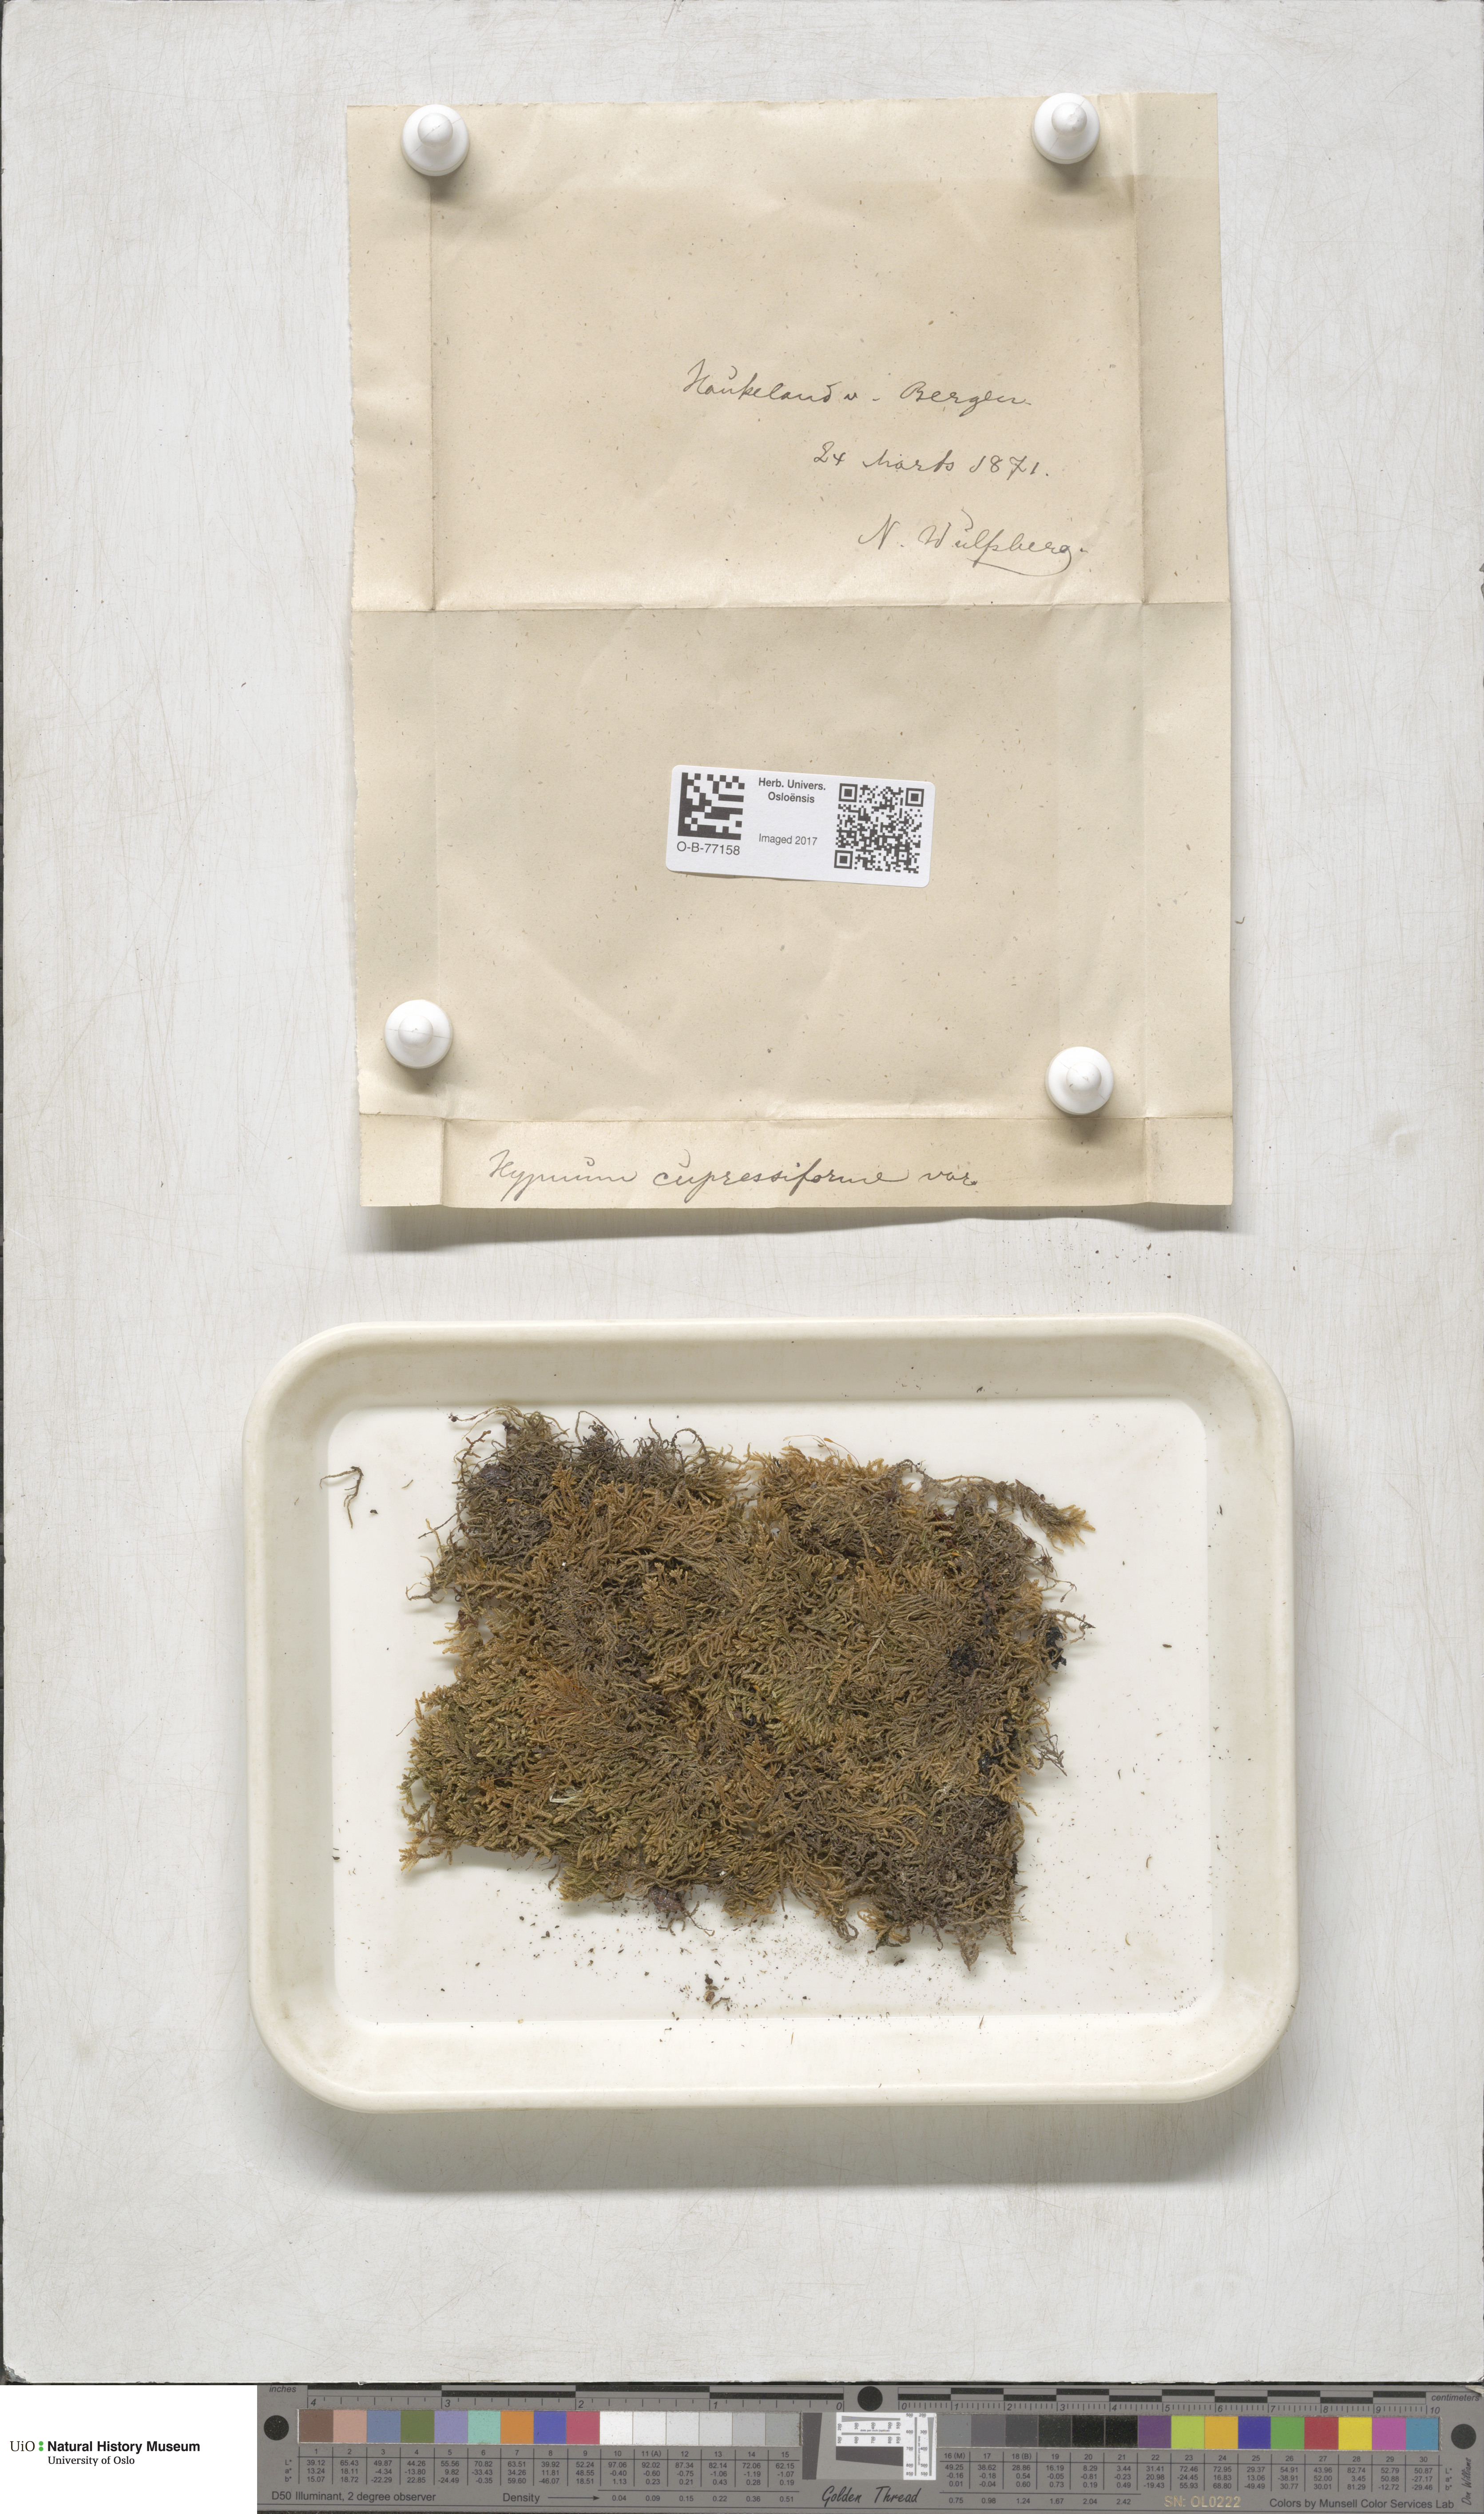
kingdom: Plantae
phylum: Bryophyta
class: Bryopsida
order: Hypnales
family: Hypnaceae
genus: Hypnum
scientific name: Hypnum cupressiforme
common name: Cypress-leaved plait-moss
